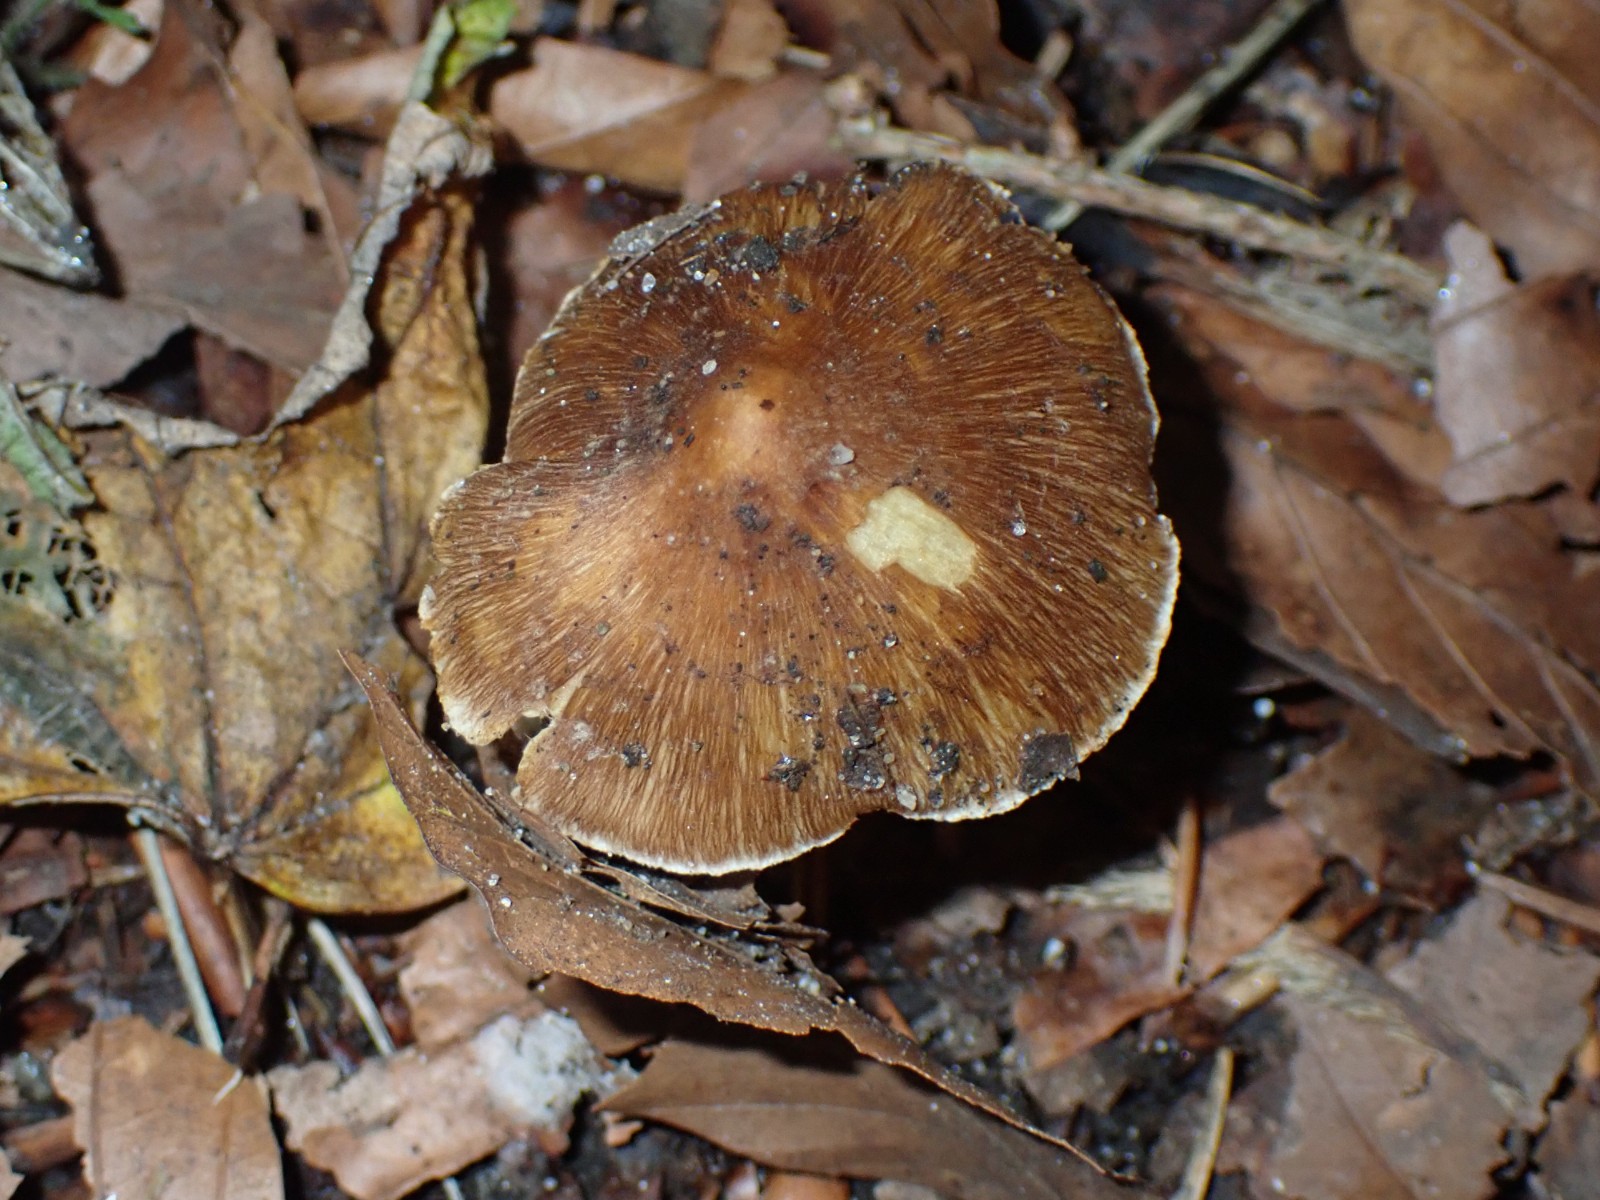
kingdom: Fungi
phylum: Basidiomycota
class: Agaricomycetes
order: Agaricales
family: Inocybaceae
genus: Inocybe
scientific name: Inocybe
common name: trævlhat
